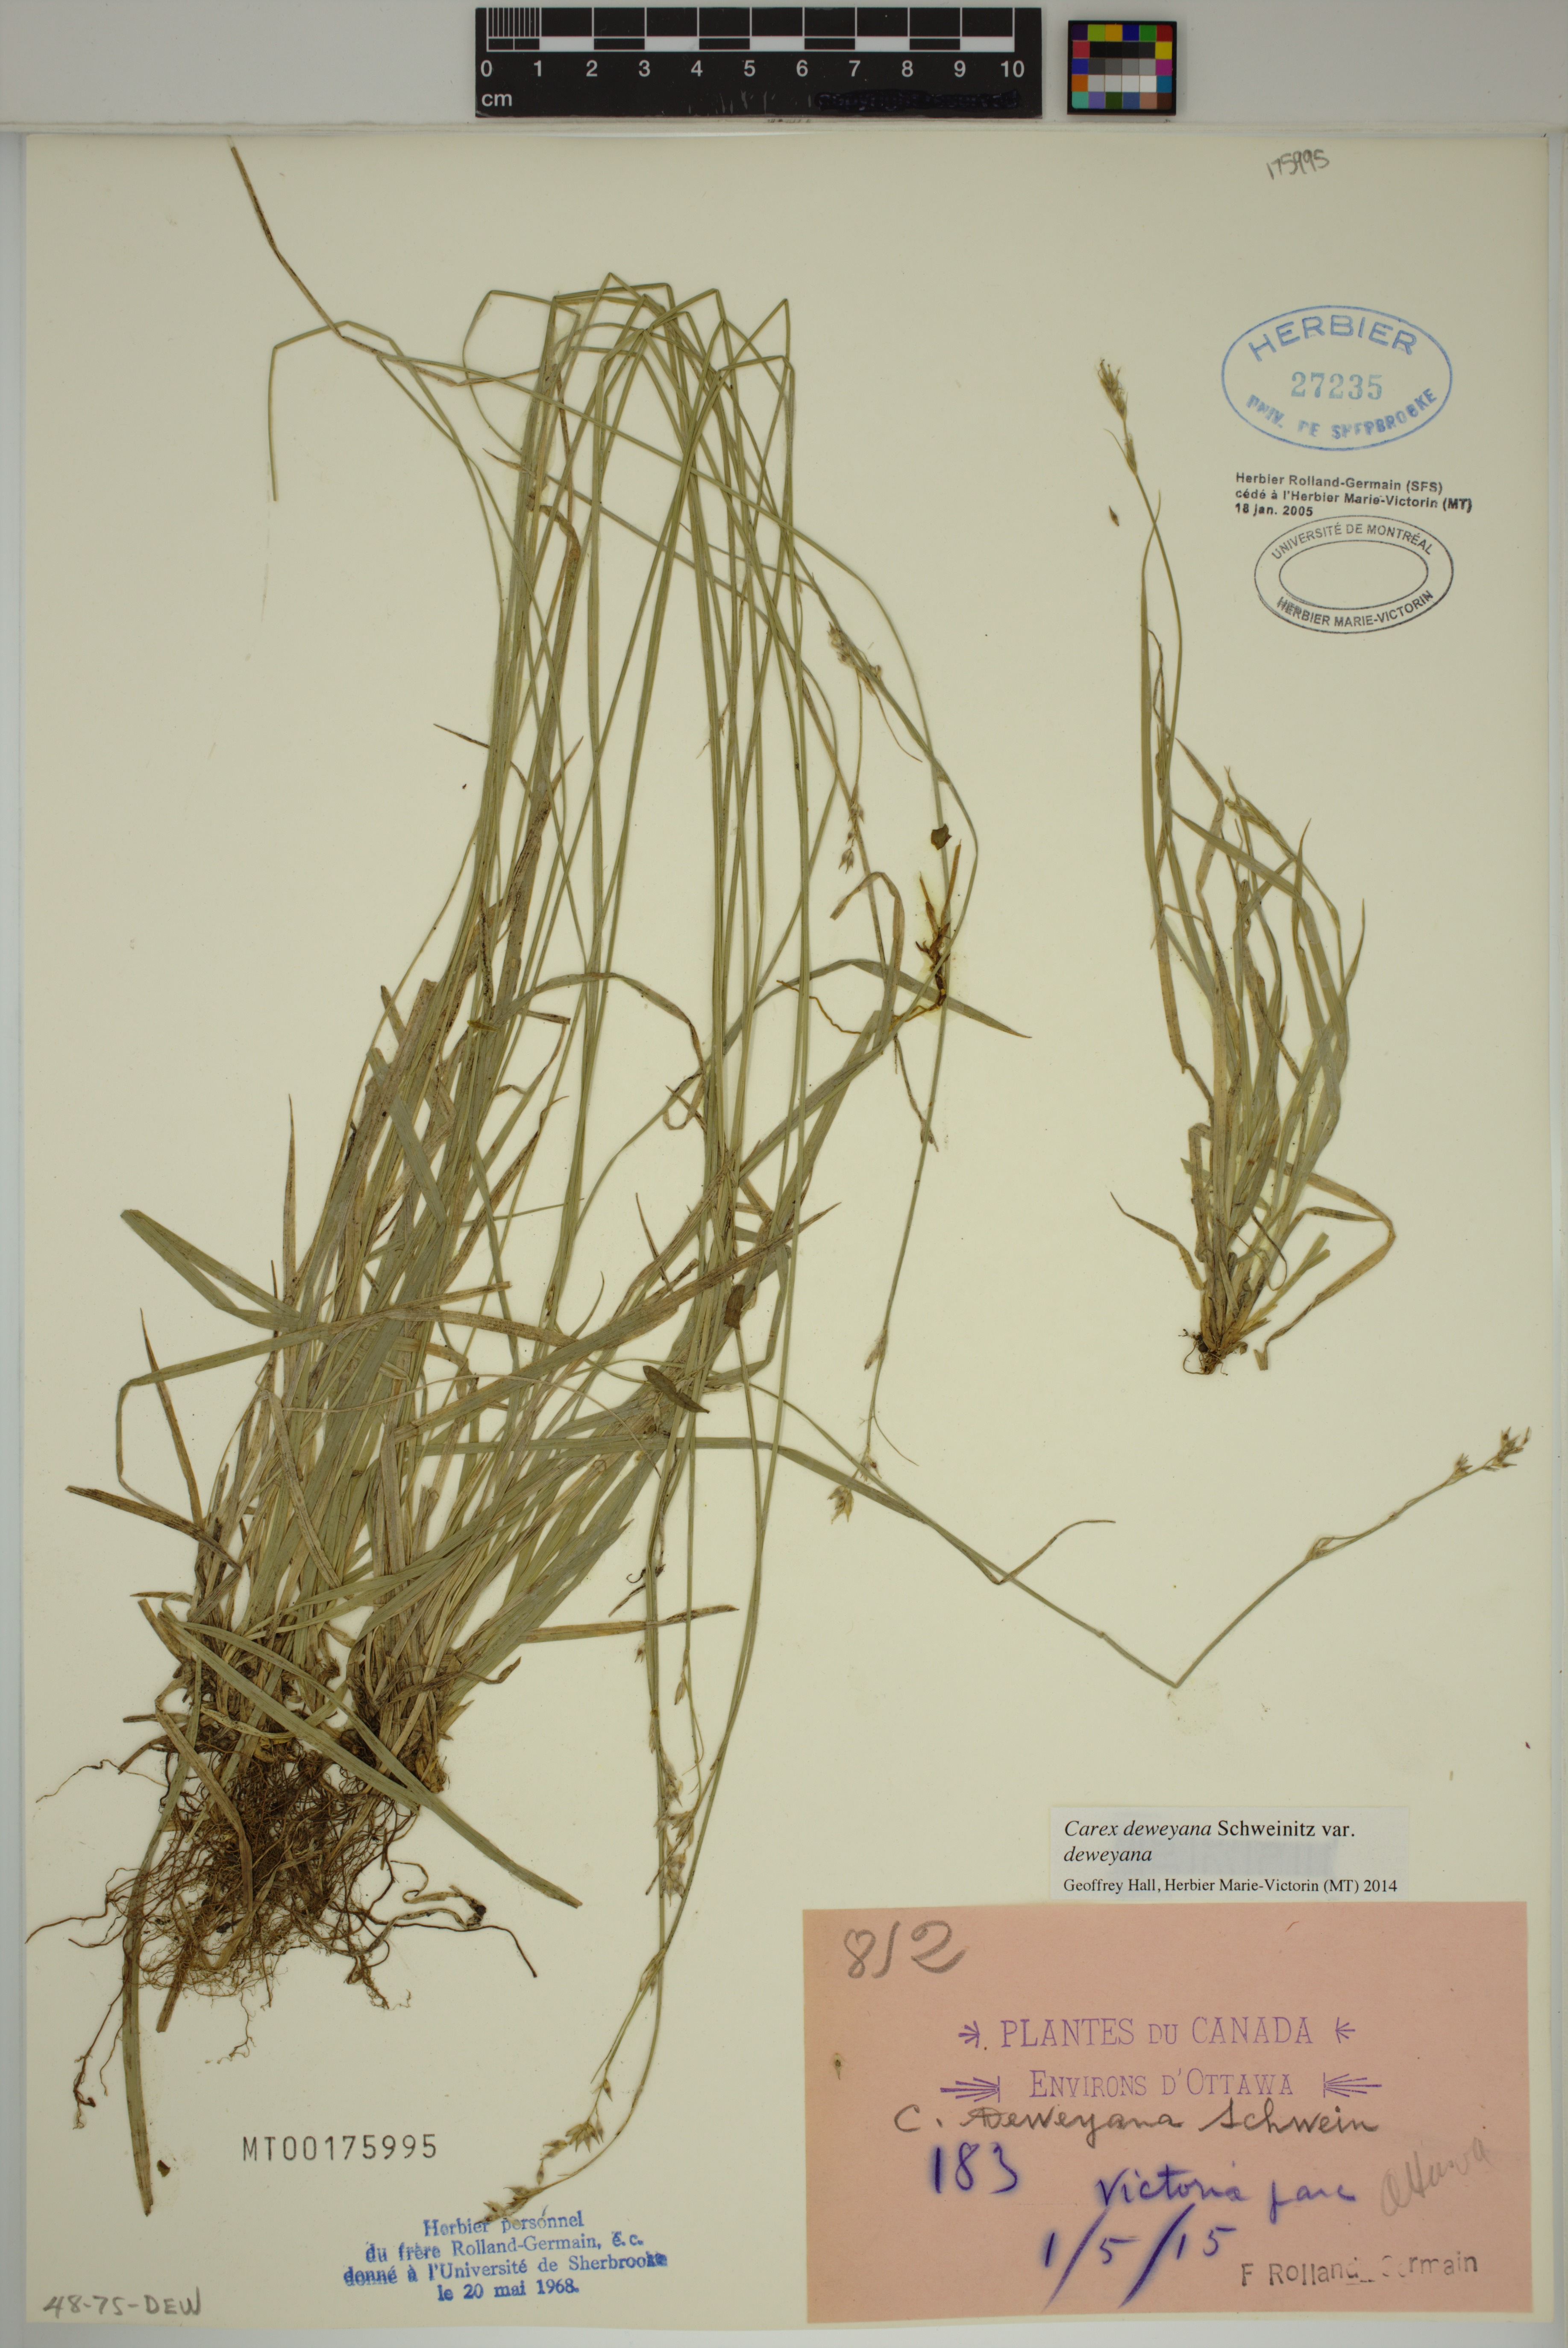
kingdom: Plantae
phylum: Tracheophyta
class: Liliopsida
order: Poales
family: Cyperaceae
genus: Carex
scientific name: Carex deweyana
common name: Dewey's sedge
